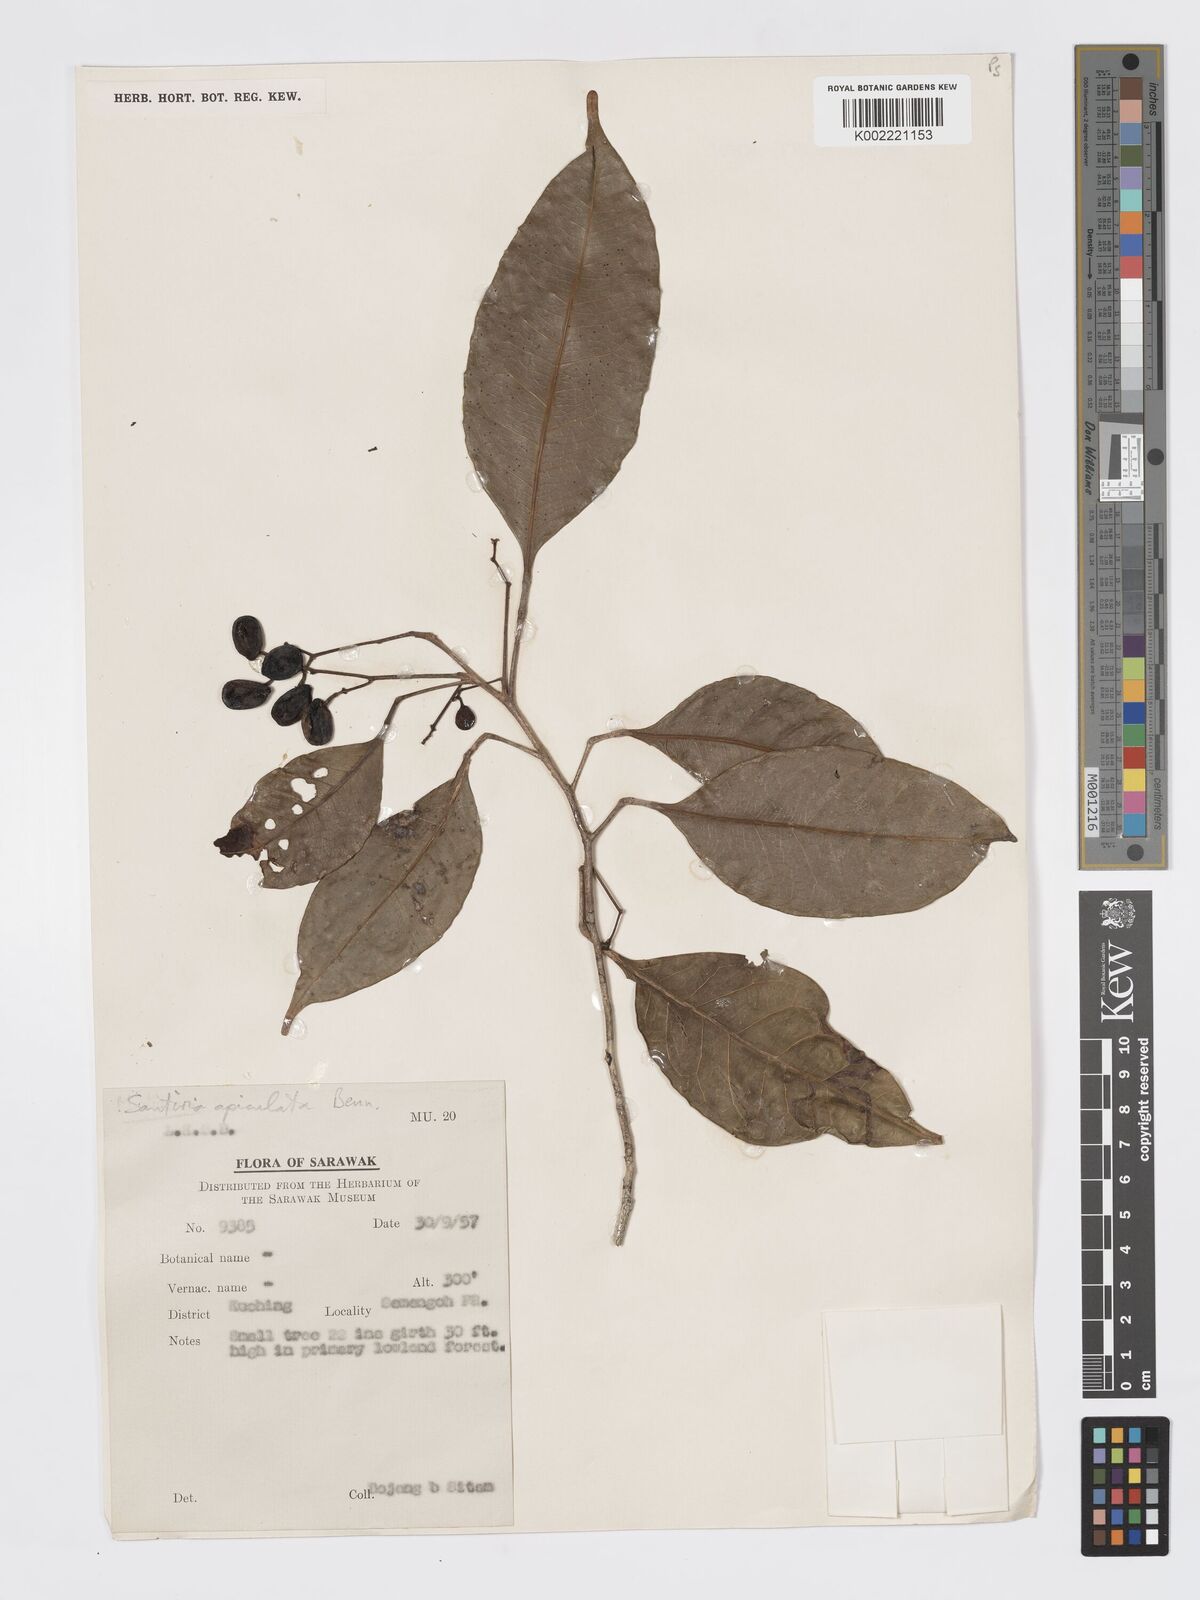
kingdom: Plantae
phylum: Tracheophyta
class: Magnoliopsida
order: Sapindales
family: Burseraceae
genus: Santiria
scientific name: Santiria apiculata
